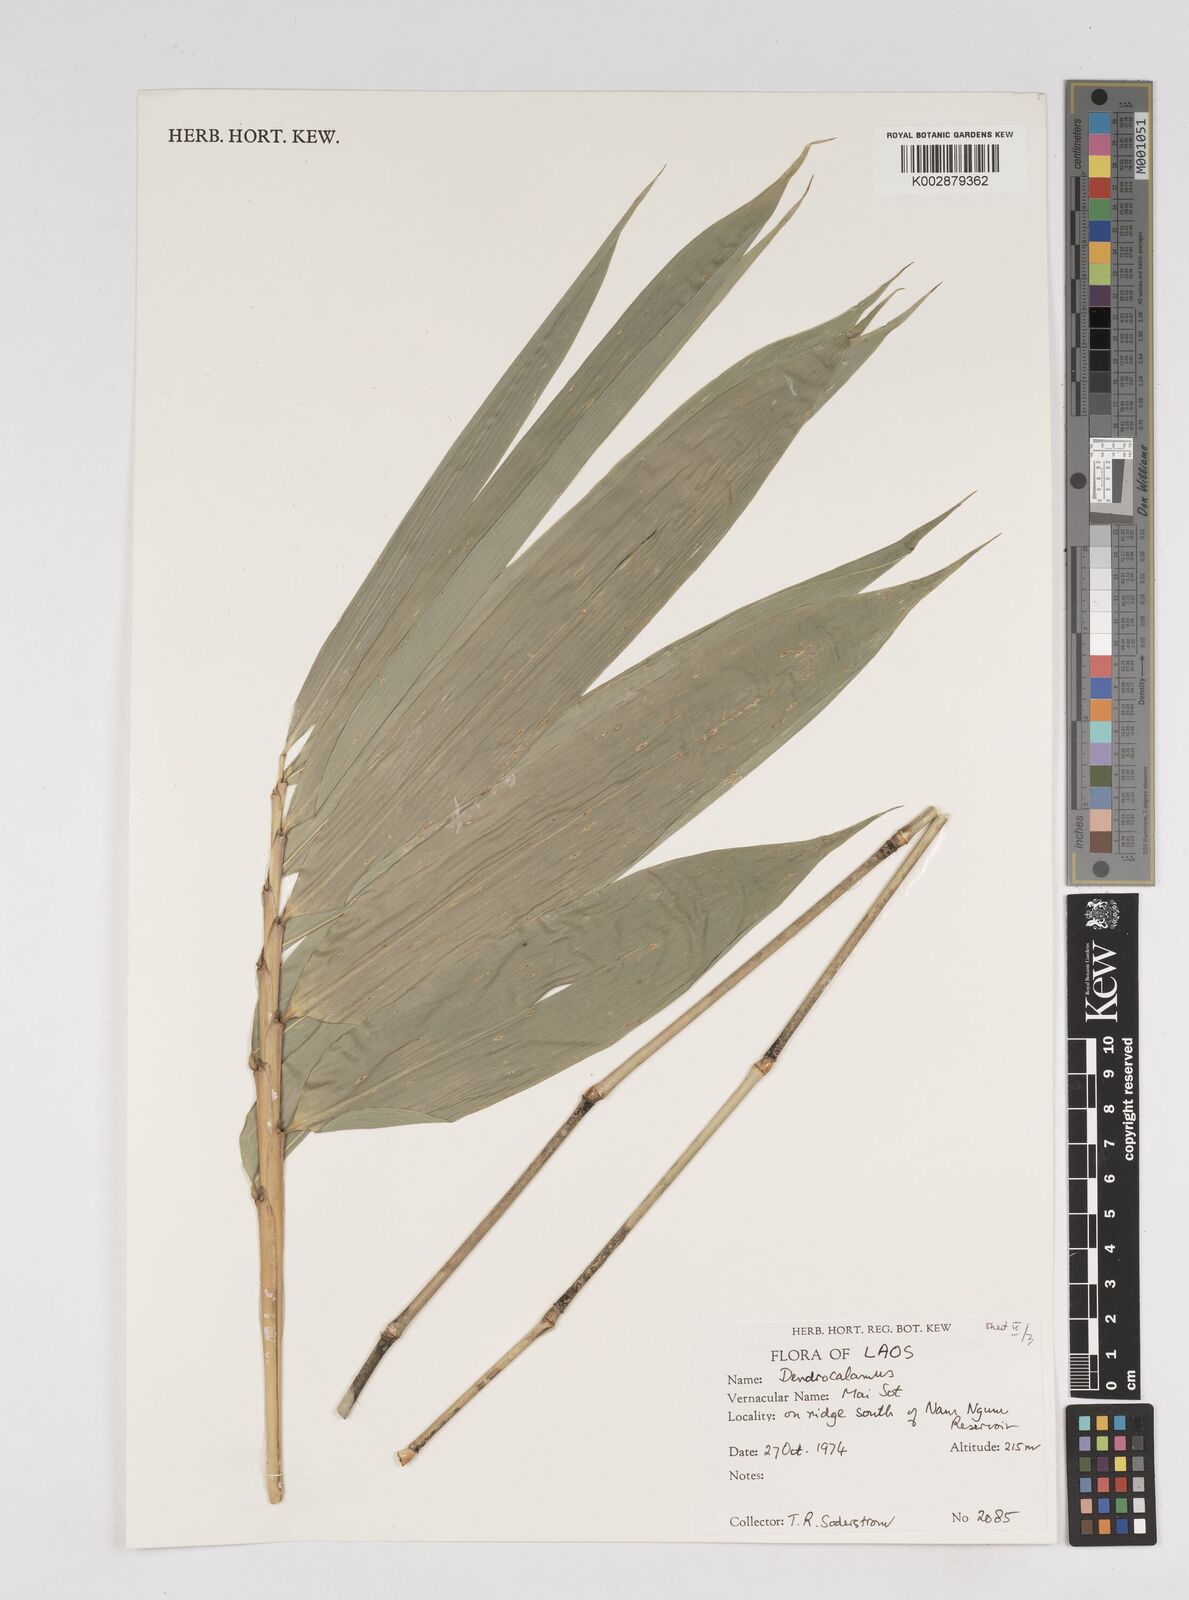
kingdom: Plantae
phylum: Tracheophyta
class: Liliopsida
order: Poales
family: Poaceae
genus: Dendrocalamus
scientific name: Dendrocalamus
